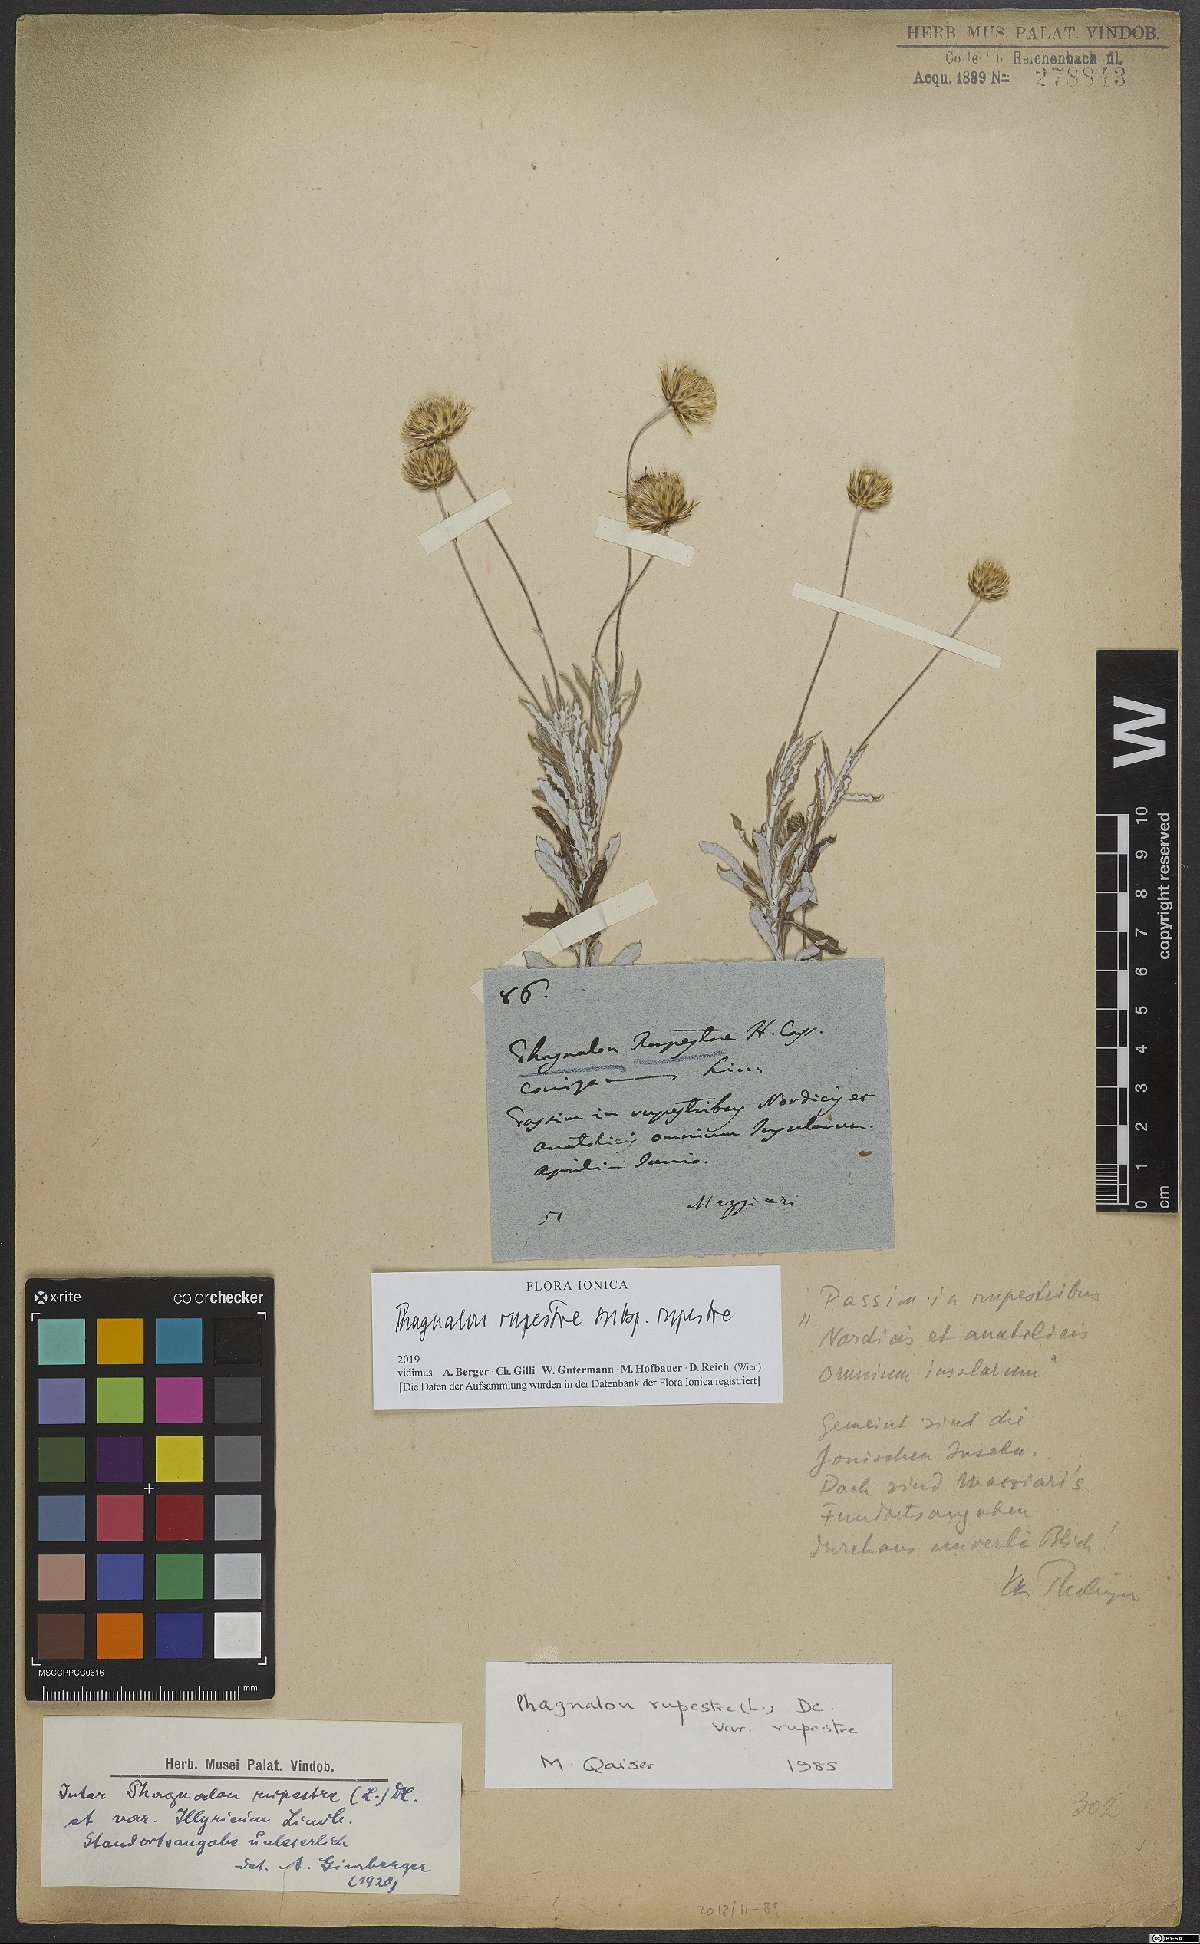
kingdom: Plantae
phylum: Tracheophyta
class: Magnoliopsida
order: Asterales
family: Asteraceae
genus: Phagnalon
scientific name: Phagnalon rupestre
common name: Rock phagnalon
